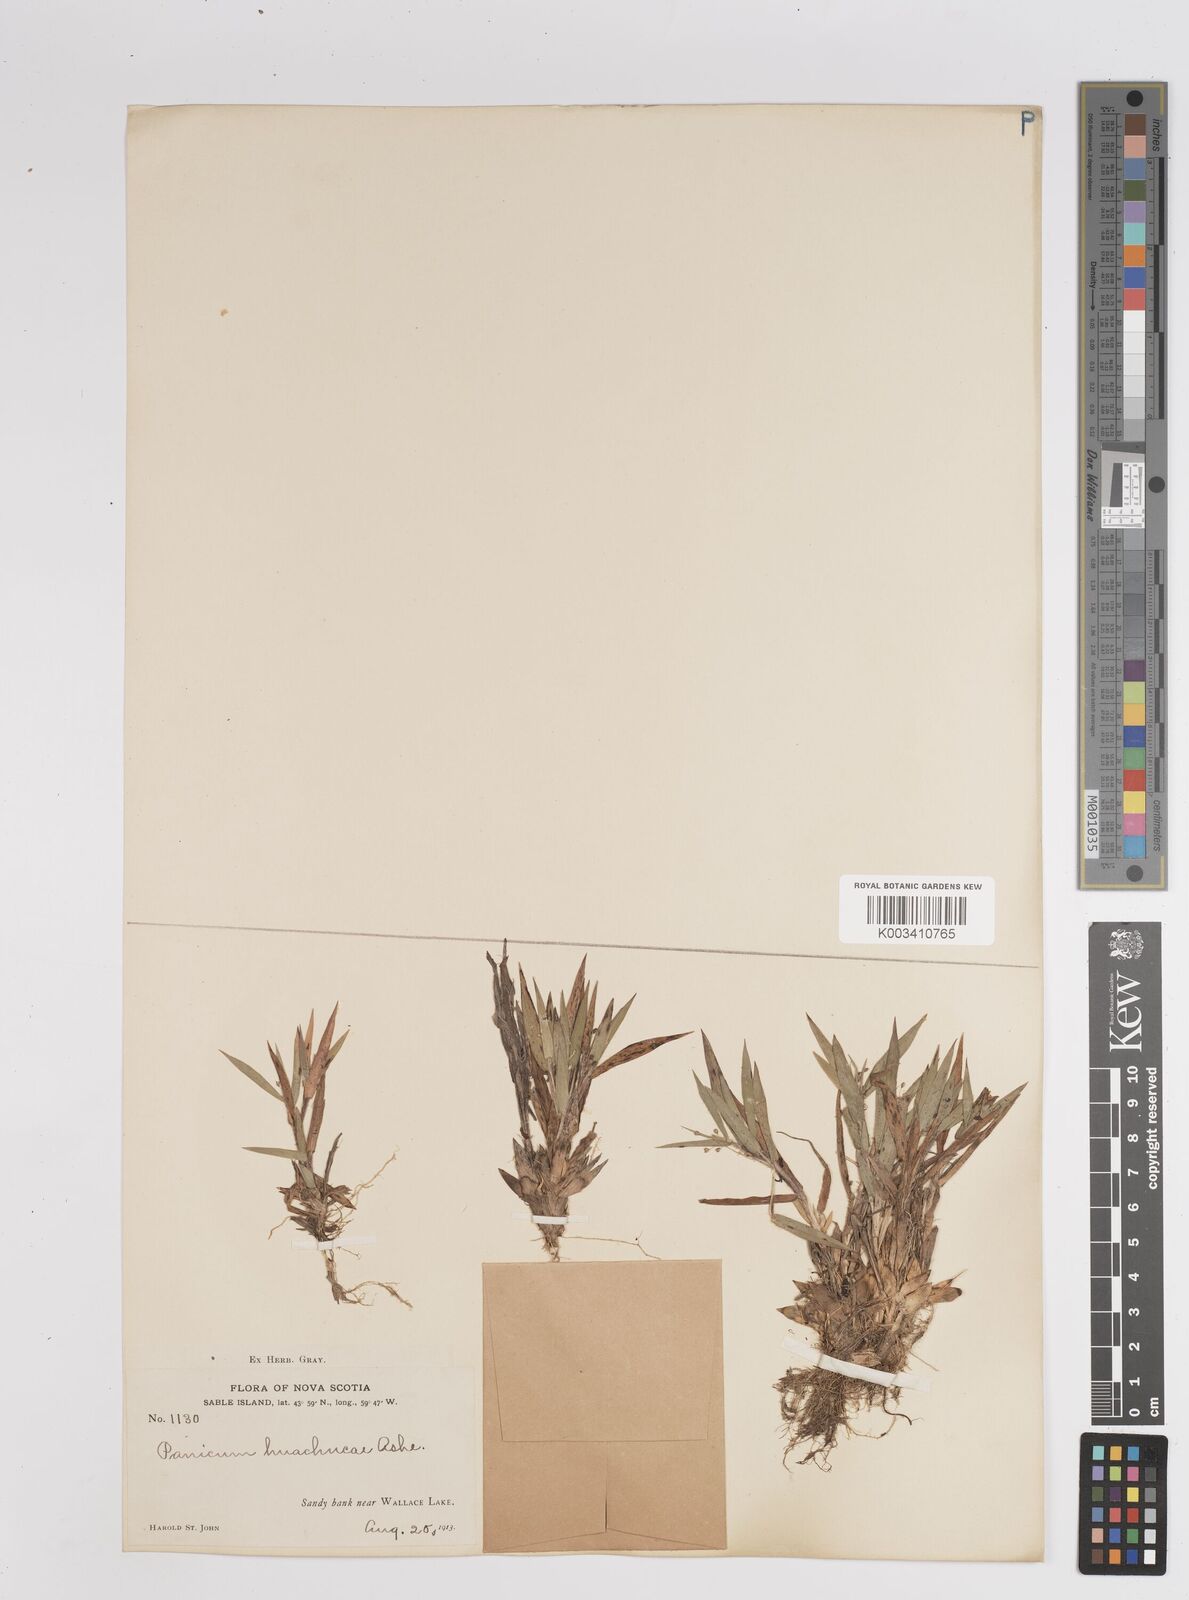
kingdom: Plantae
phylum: Tracheophyta
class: Liliopsida
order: Poales
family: Poaceae
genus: Dichanthelium
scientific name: Dichanthelium lanuginosum
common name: Woolly panicgrass
